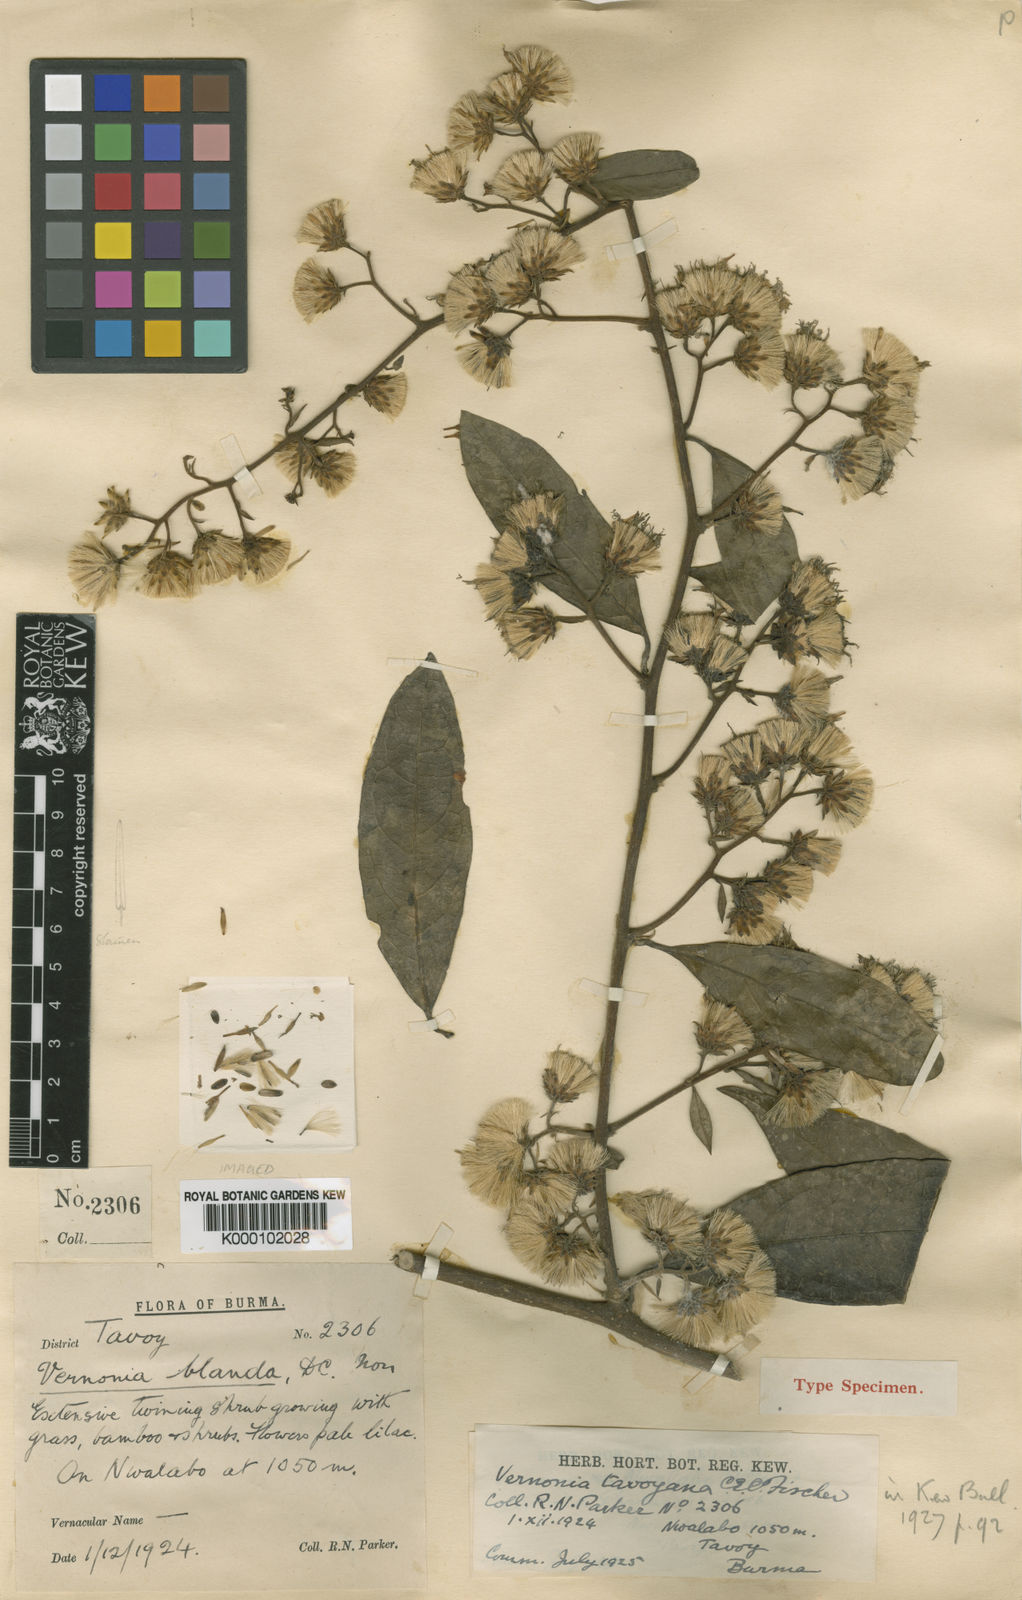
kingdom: Plantae
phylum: Tracheophyta
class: Magnoliopsida
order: Asterales
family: Asteraceae
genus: Decaneuropsis
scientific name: Decaneuropsis blanda
